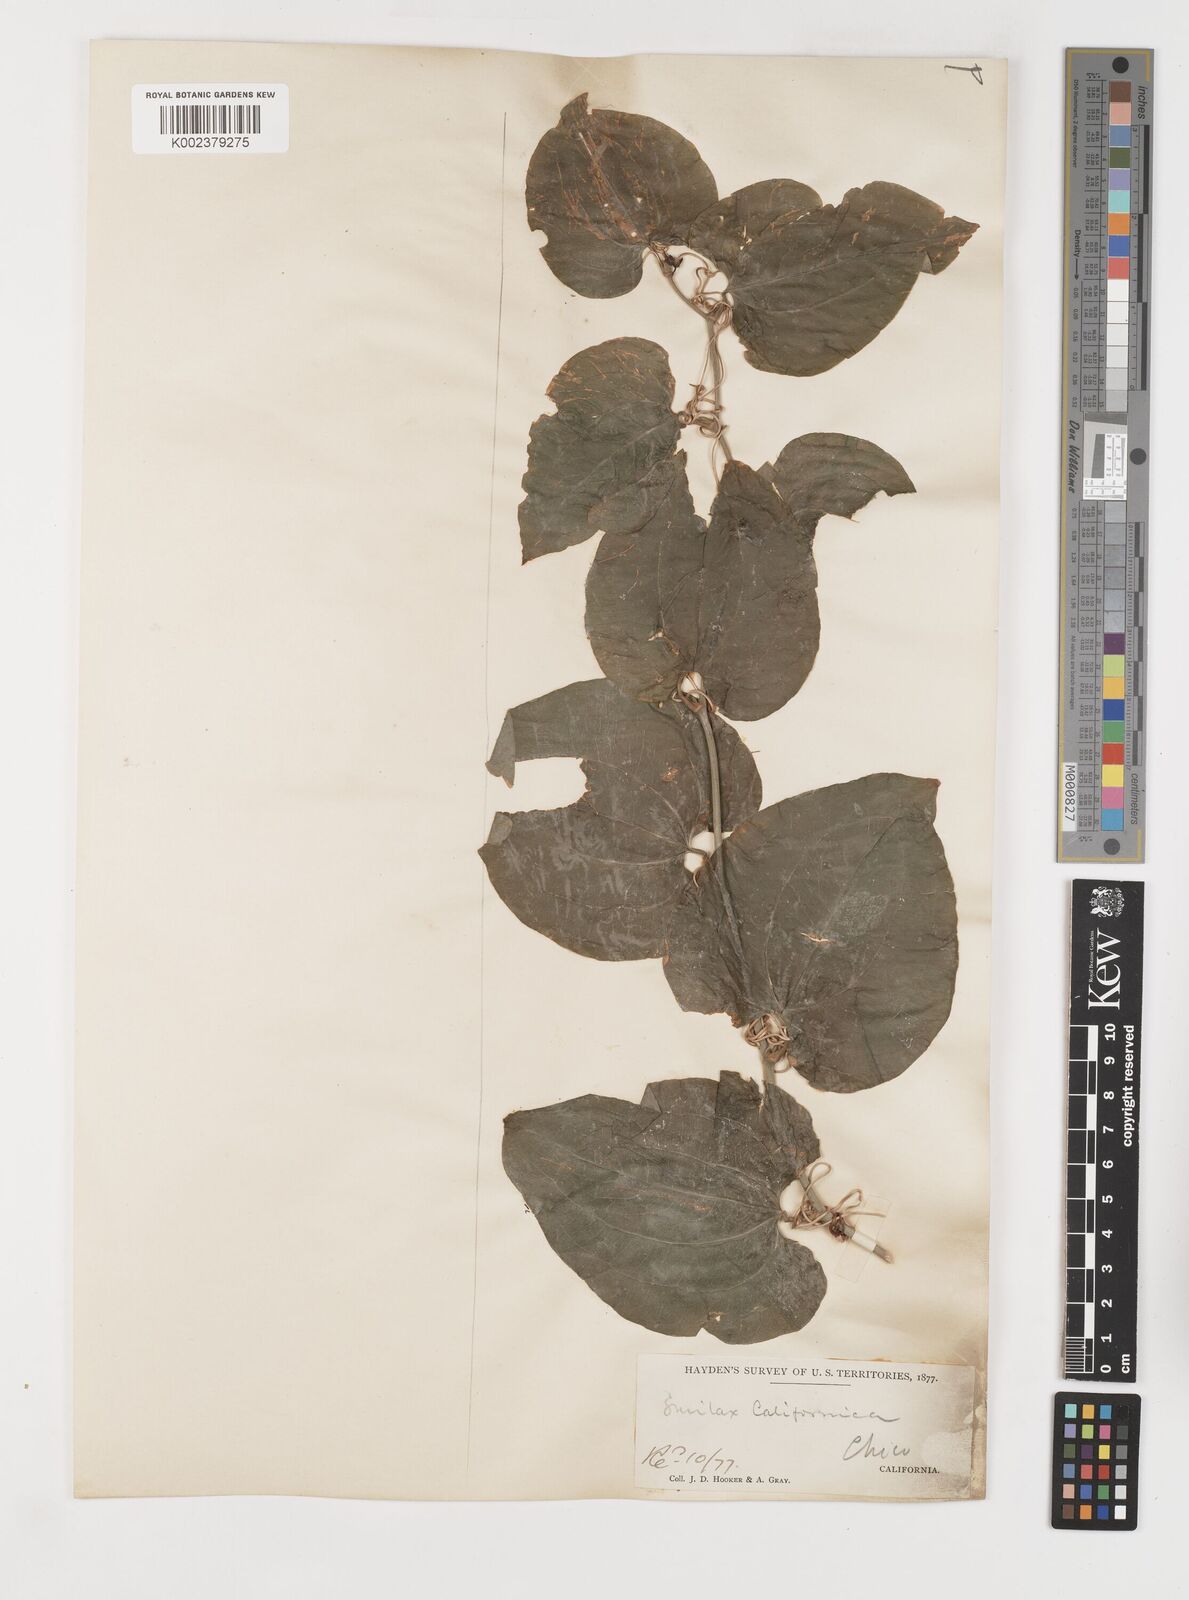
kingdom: Plantae
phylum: Tracheophyta
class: Liliopsida
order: Liliales
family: Smilacaceae
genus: Smilax
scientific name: Smilax californica
